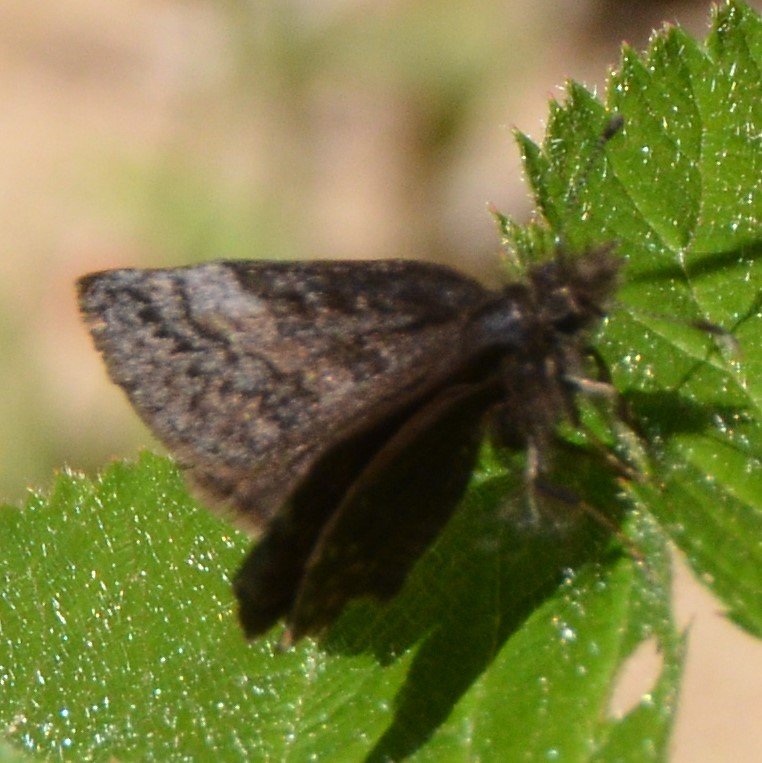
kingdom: Animalia
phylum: Arthropoda
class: Insecta
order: Lepidoptera
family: Hesperiidae
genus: Erynnis
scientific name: Erynnis icelus
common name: Dreamy Duskywing
